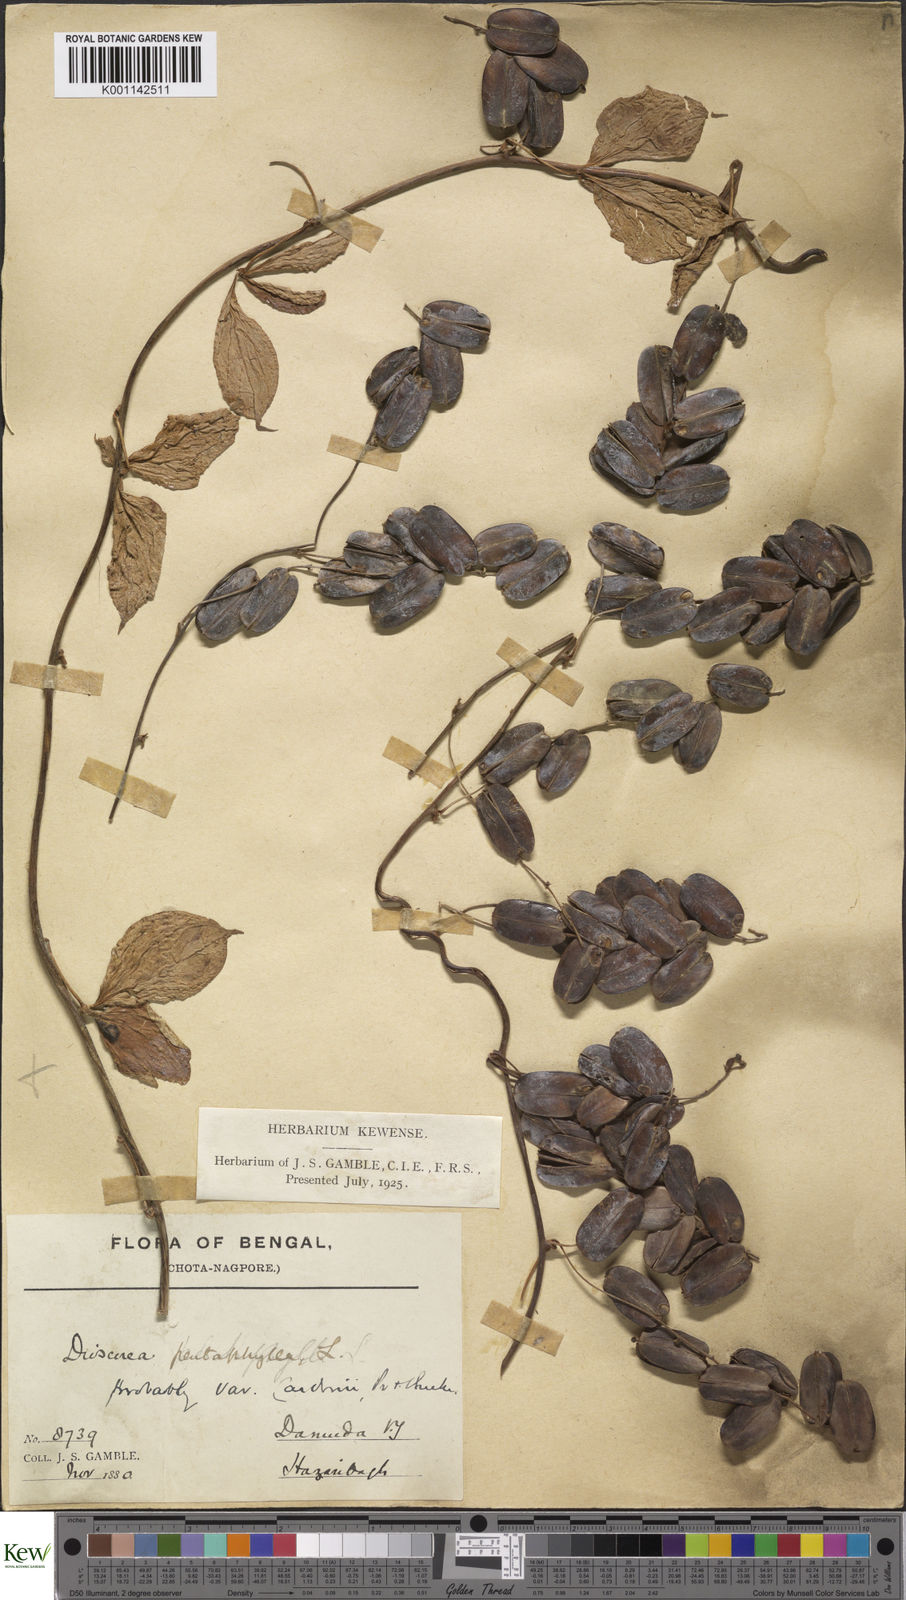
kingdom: Plantae
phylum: Tracheophyta
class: Liliopsida
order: Dioscoreales
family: Dioscoreaceae
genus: Dioscorea
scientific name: Dioscorea pentaphylla
